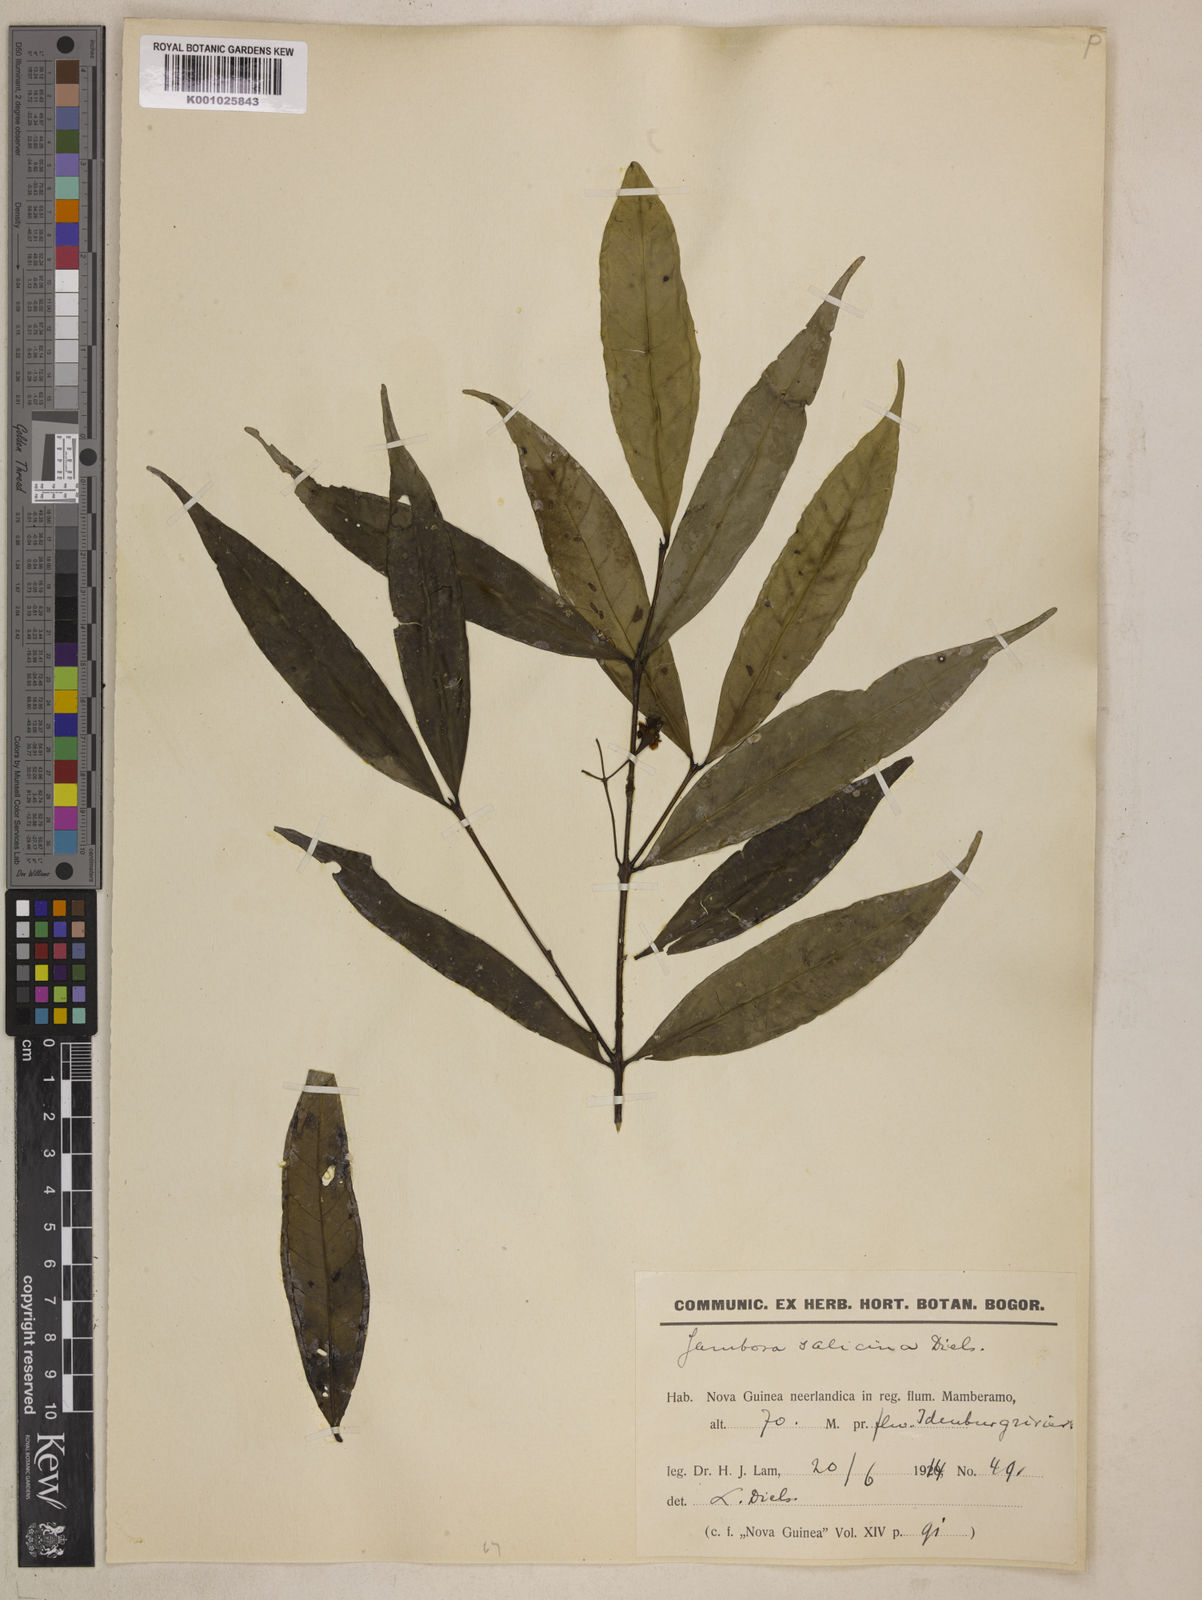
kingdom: Plantae
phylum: Tracheophyta
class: Magnoliopsida
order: Myrtales
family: Myrtaceae
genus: Syzygium
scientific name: Syzygium salicinum
